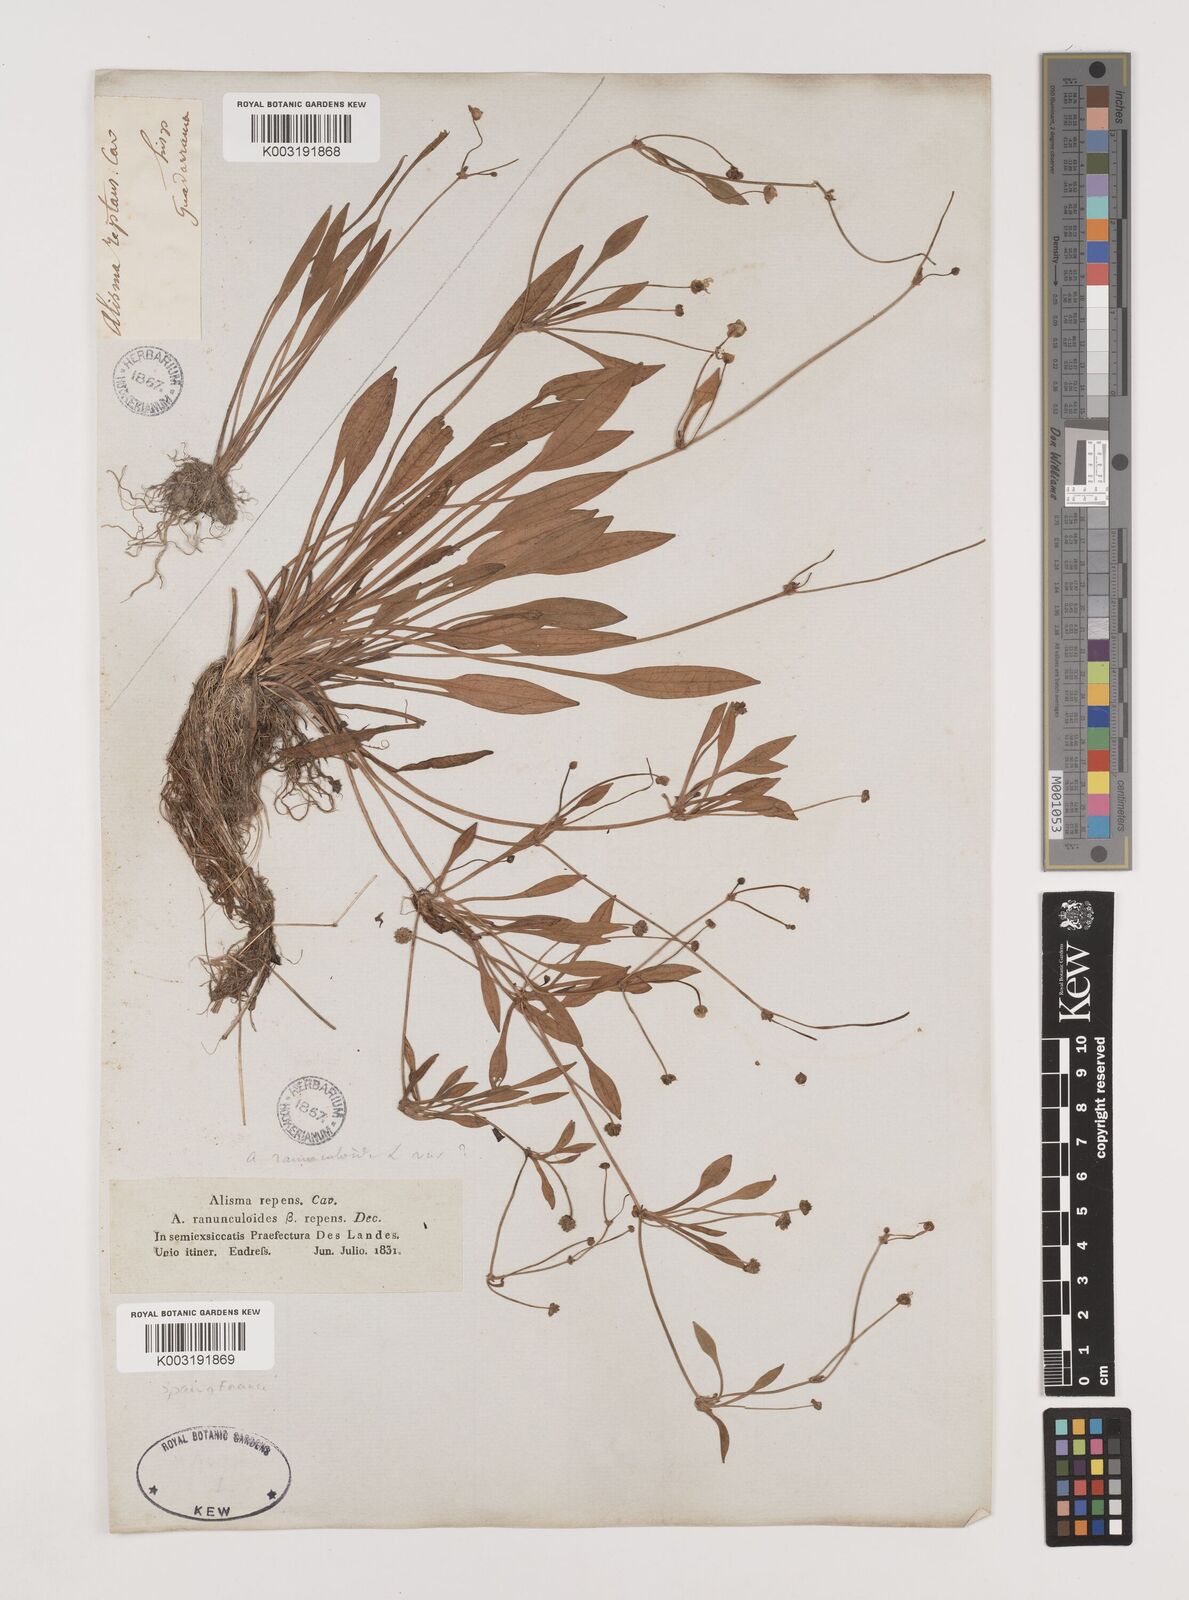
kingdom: Plantae
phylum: Tracheophyta
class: Liliopsida
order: Alismatales
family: Alismataceae
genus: Baldellia
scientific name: Baldellia repens
